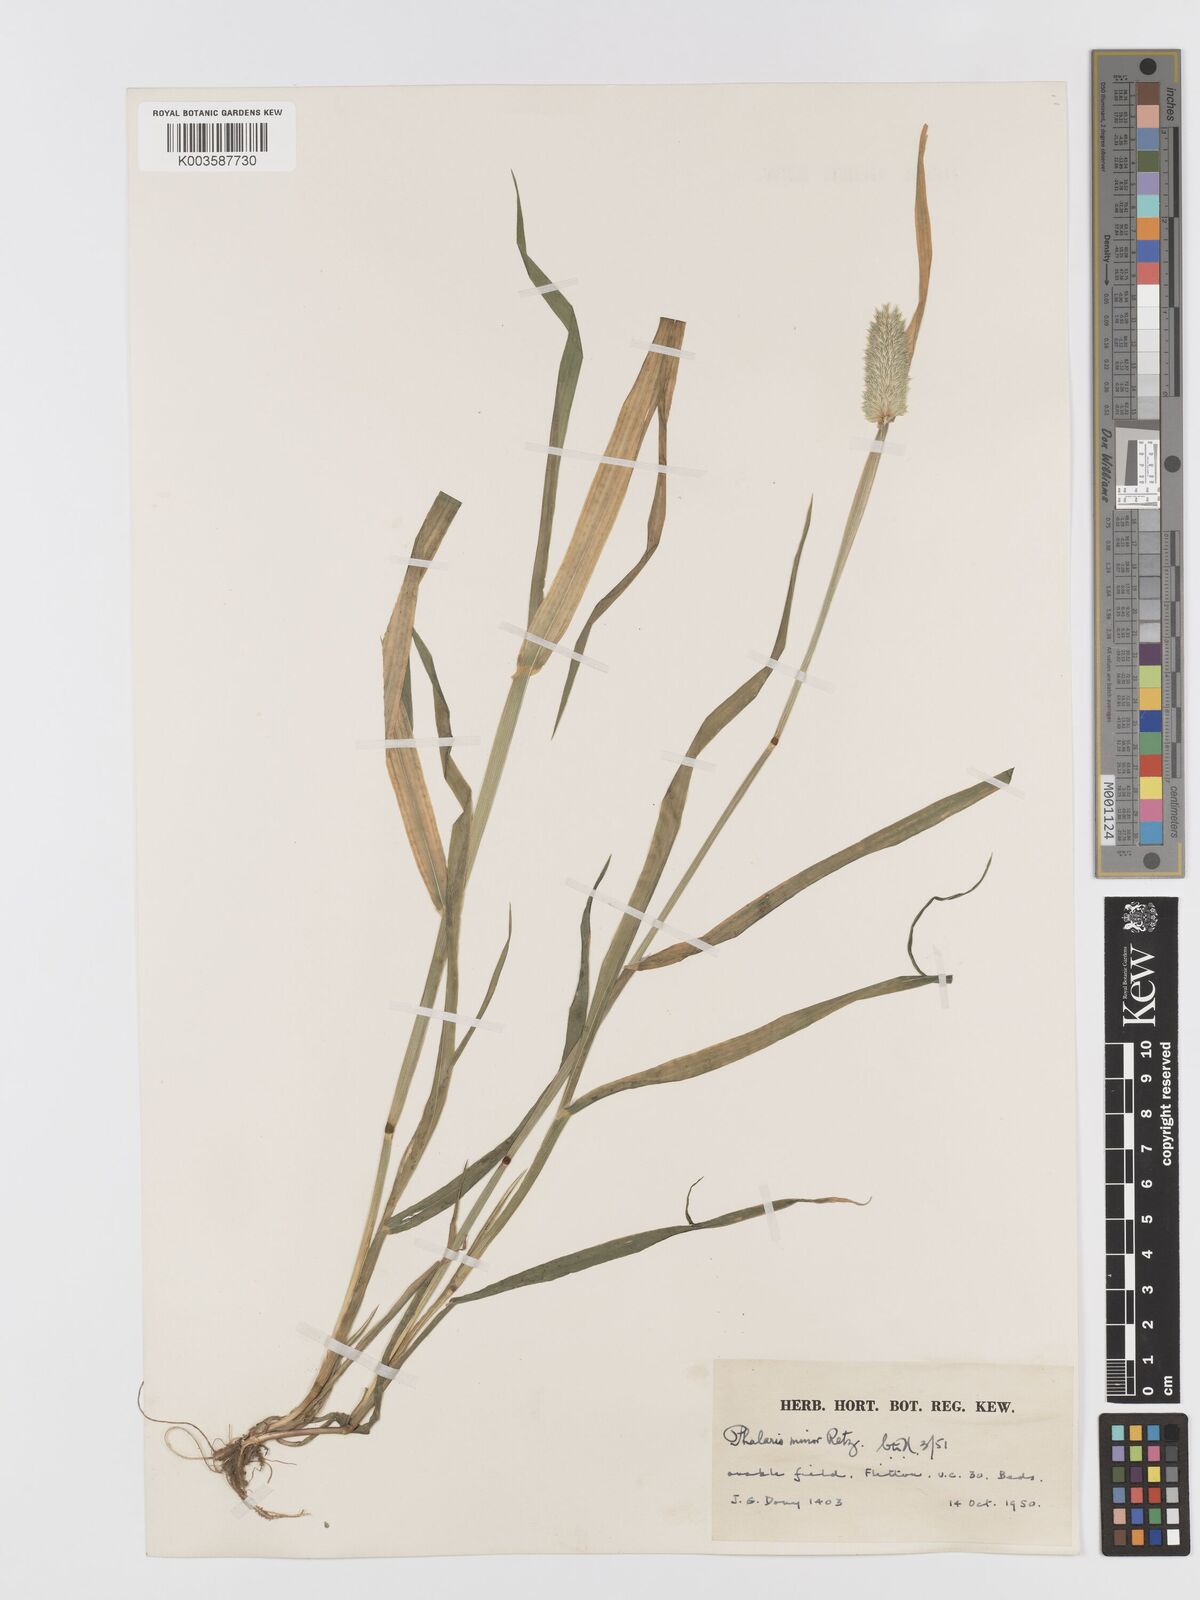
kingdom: Plantae
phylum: Tracheophyta
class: Liliopsida
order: Poales
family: Poaceae
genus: Phalaris
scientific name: Phalaris minor
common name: Littleseed canarygrass
